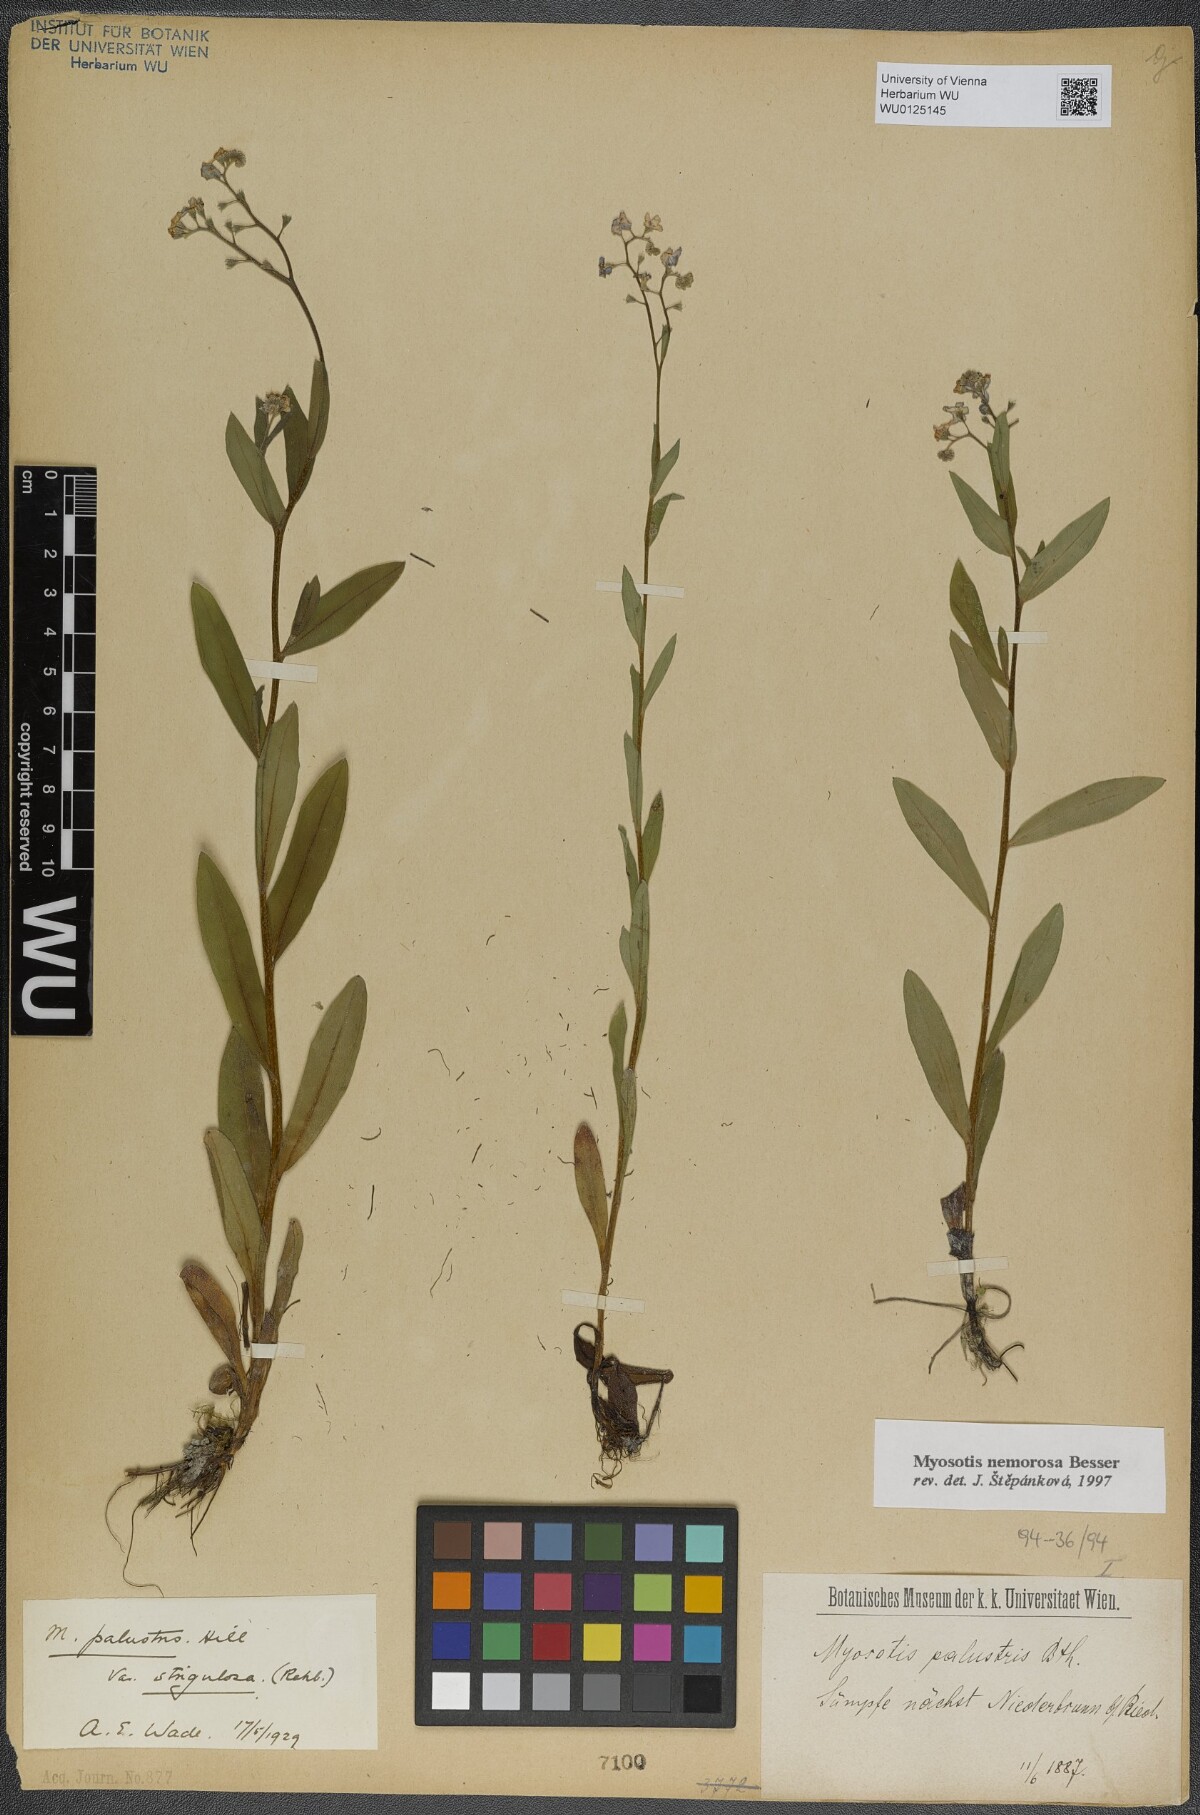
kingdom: Plantae
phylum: Tracheophyta
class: Magnoliopsida
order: Boraginales
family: Boraginaceae
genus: Myosotis
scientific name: Myosotis nemorosa
